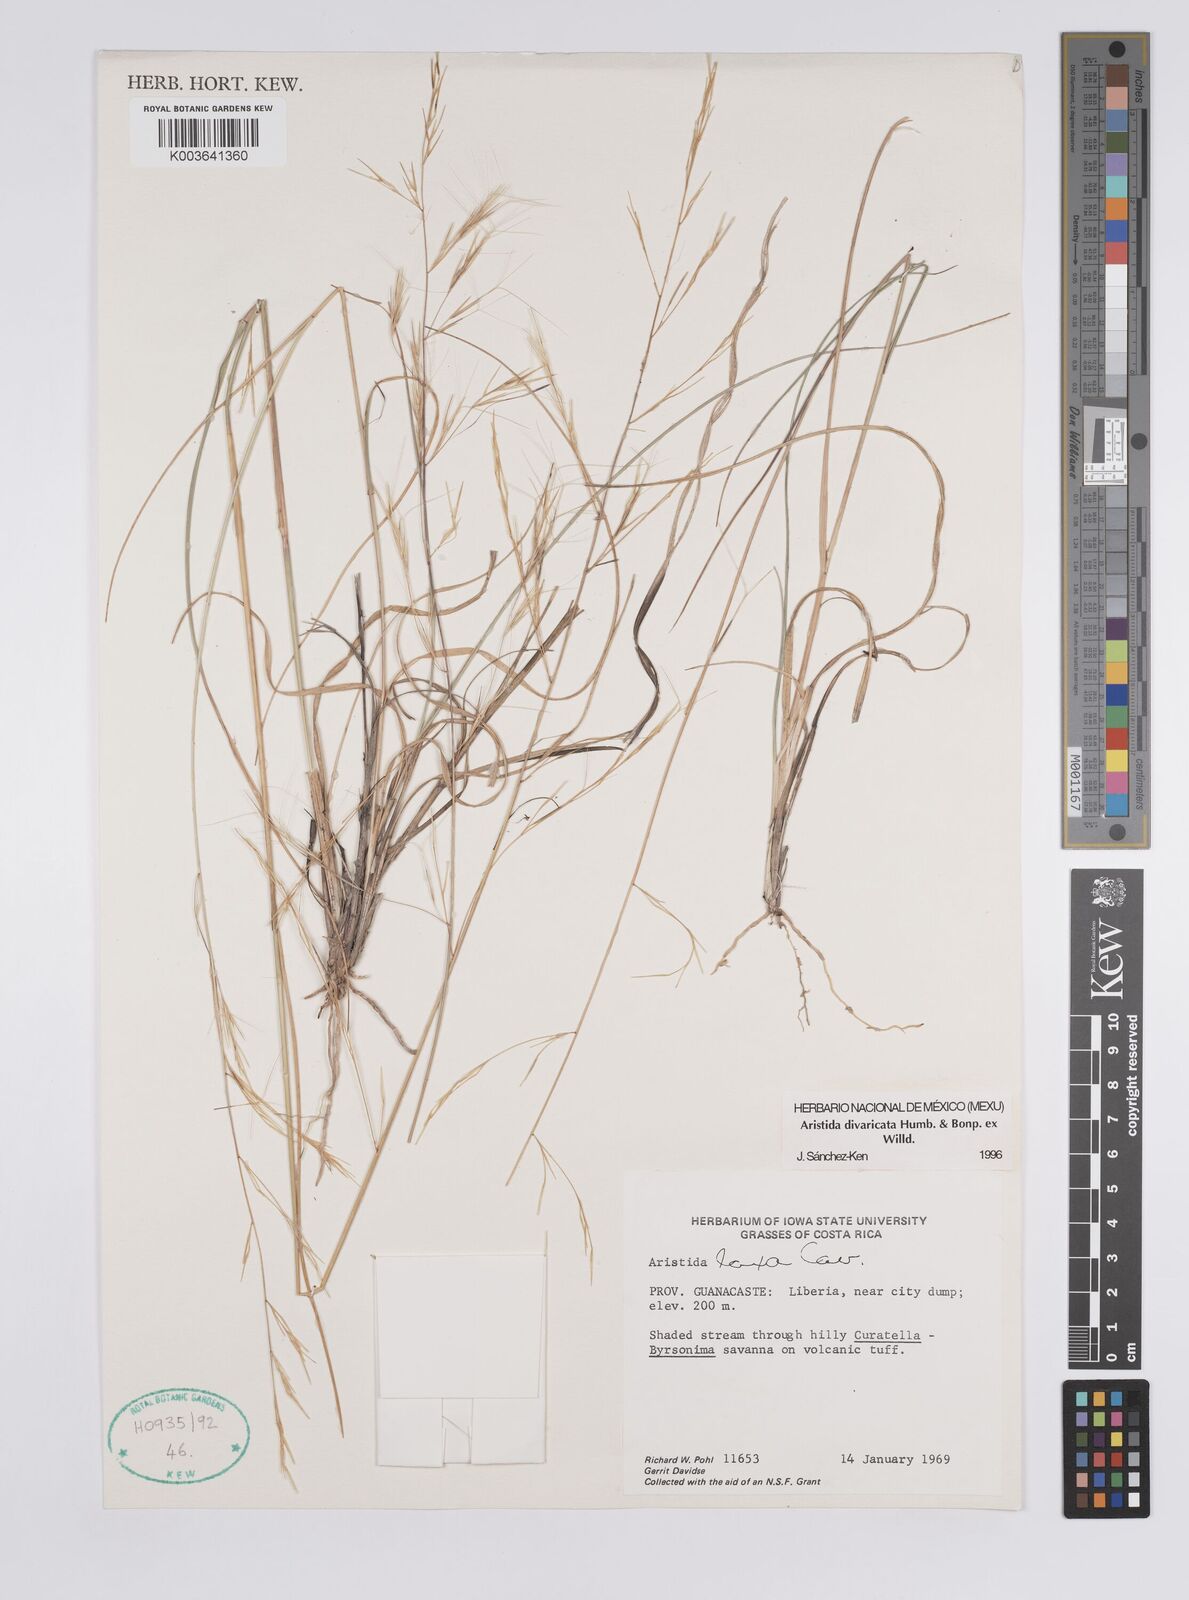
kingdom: Plantae
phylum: Tracheophyta
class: Liliopsida
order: Poales
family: Poaceae
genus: Aristida
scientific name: Aristida divaricata
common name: Poverty grass
